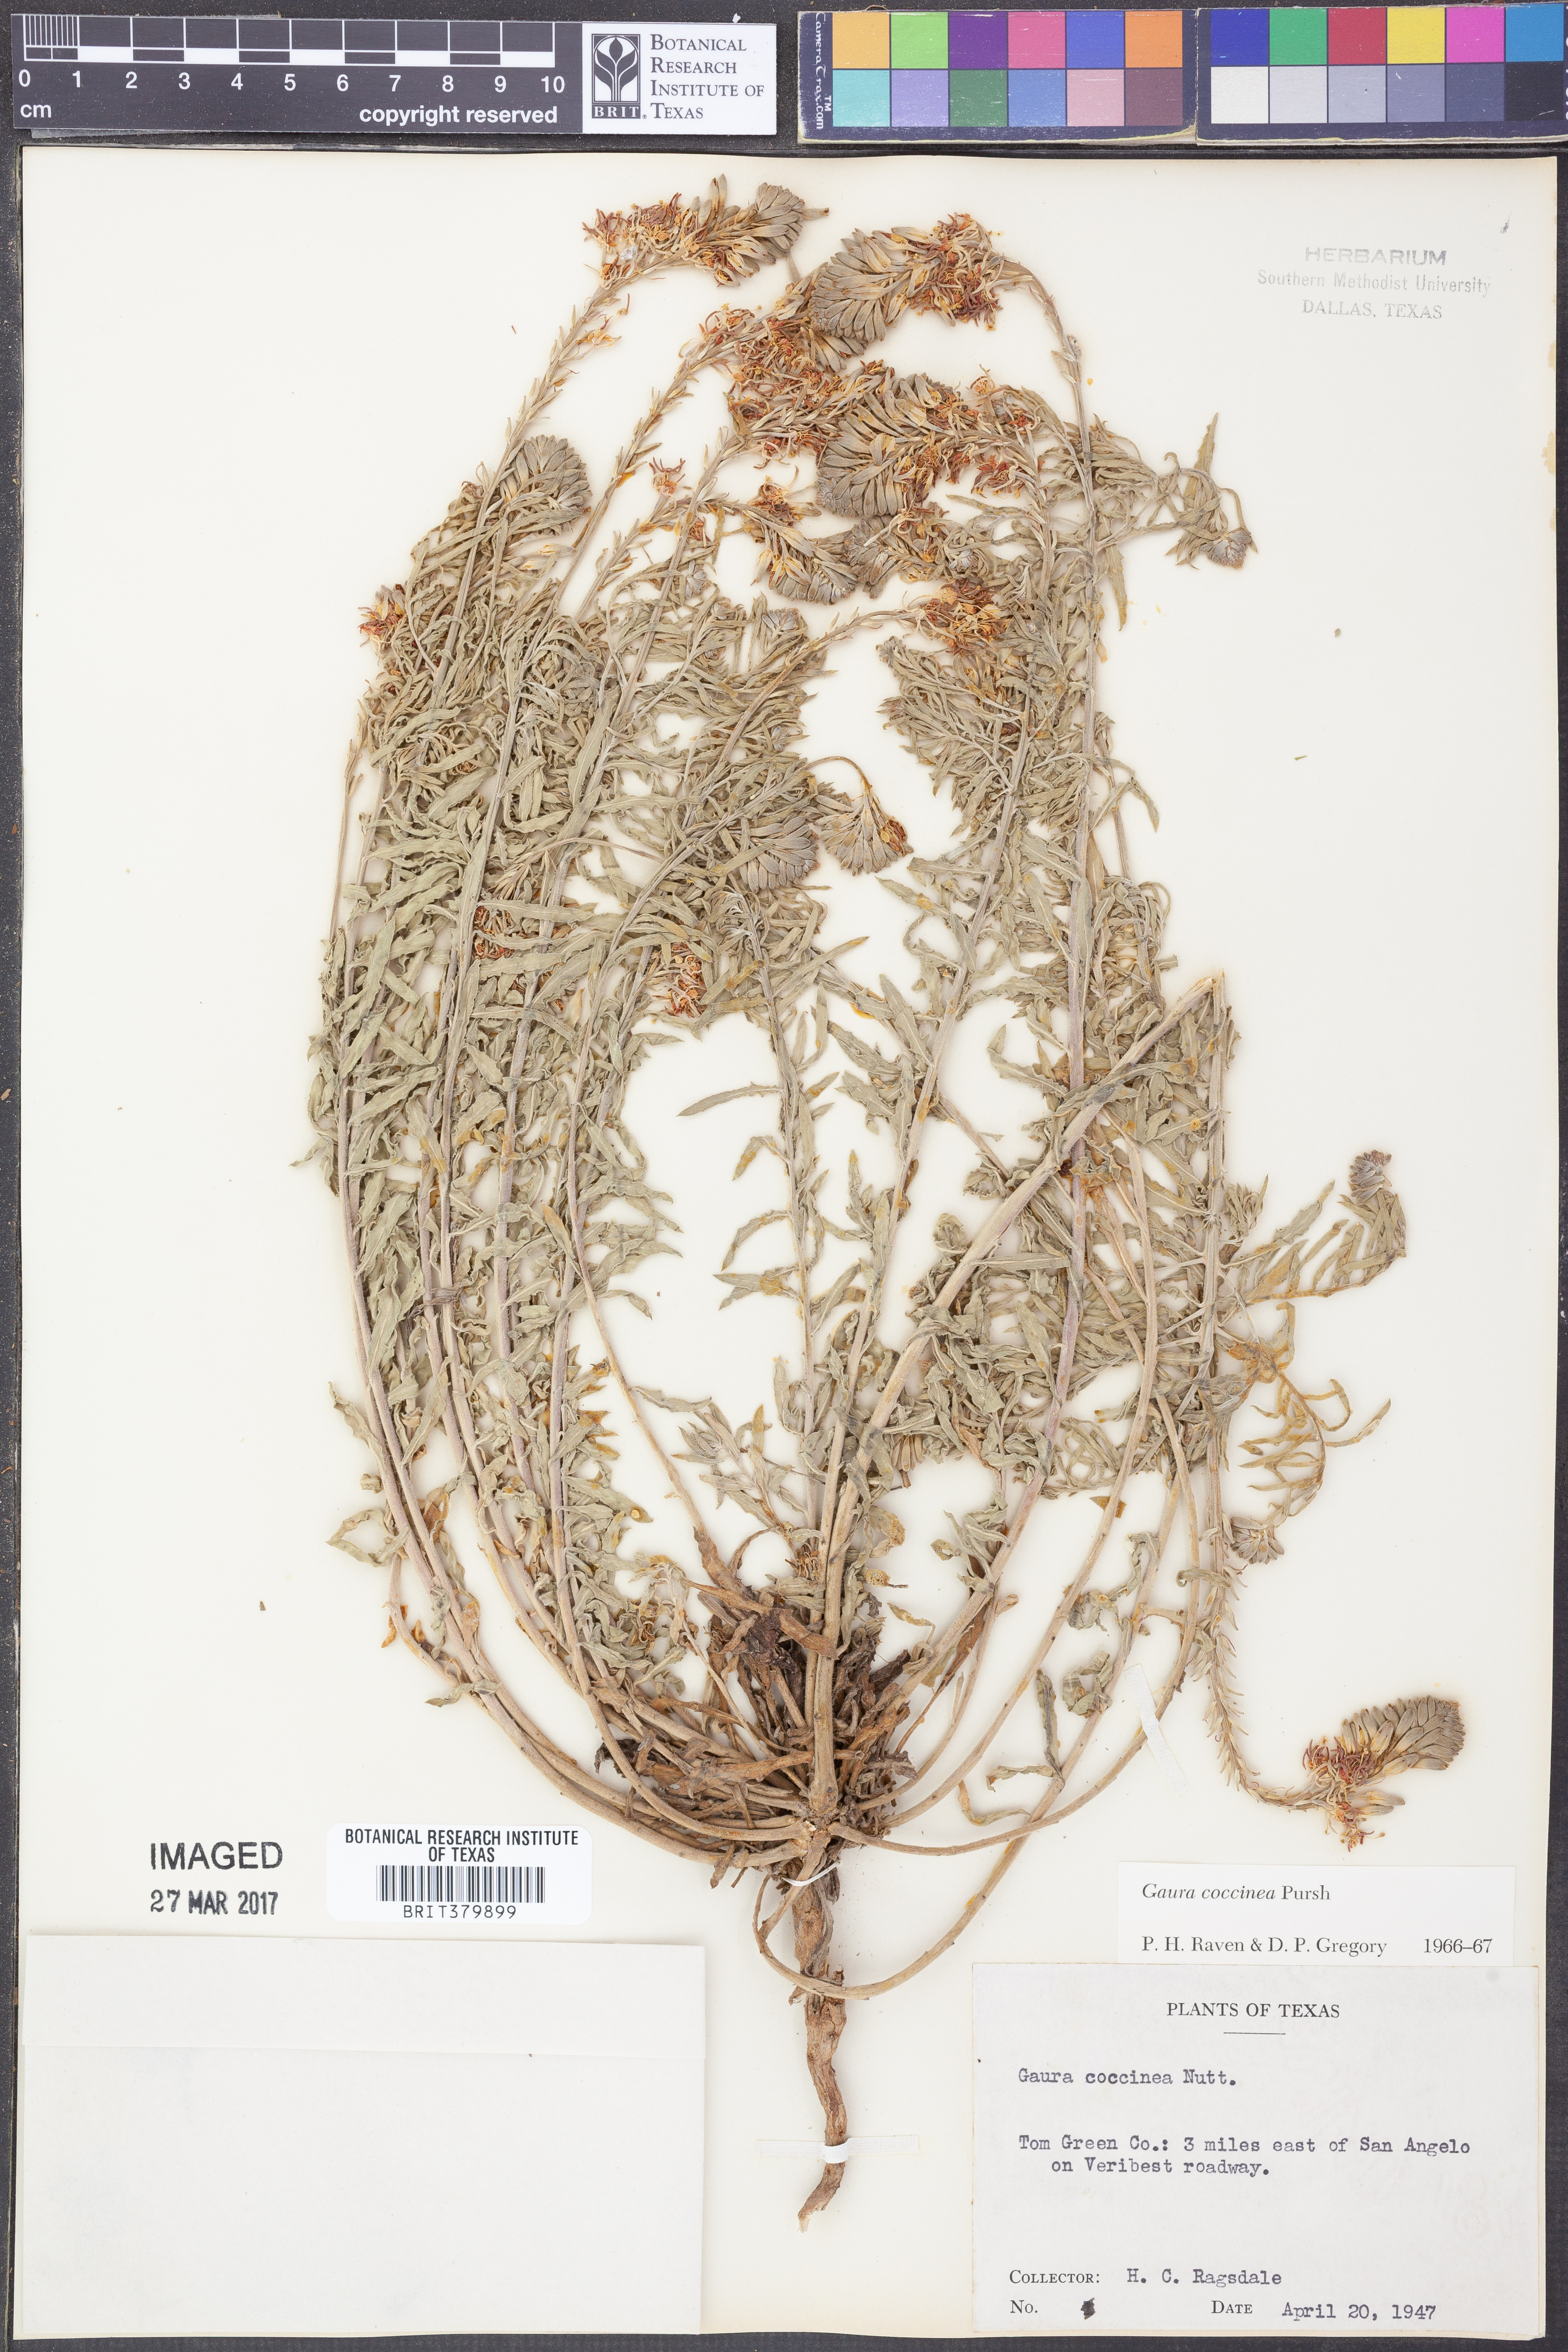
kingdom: Plantae
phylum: Tracheophyta
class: Magnoliopsida
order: Myrtales
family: Onagraceae
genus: Oenothera
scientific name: Oenothera suffrutescens
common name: Scarlet beeblossom
